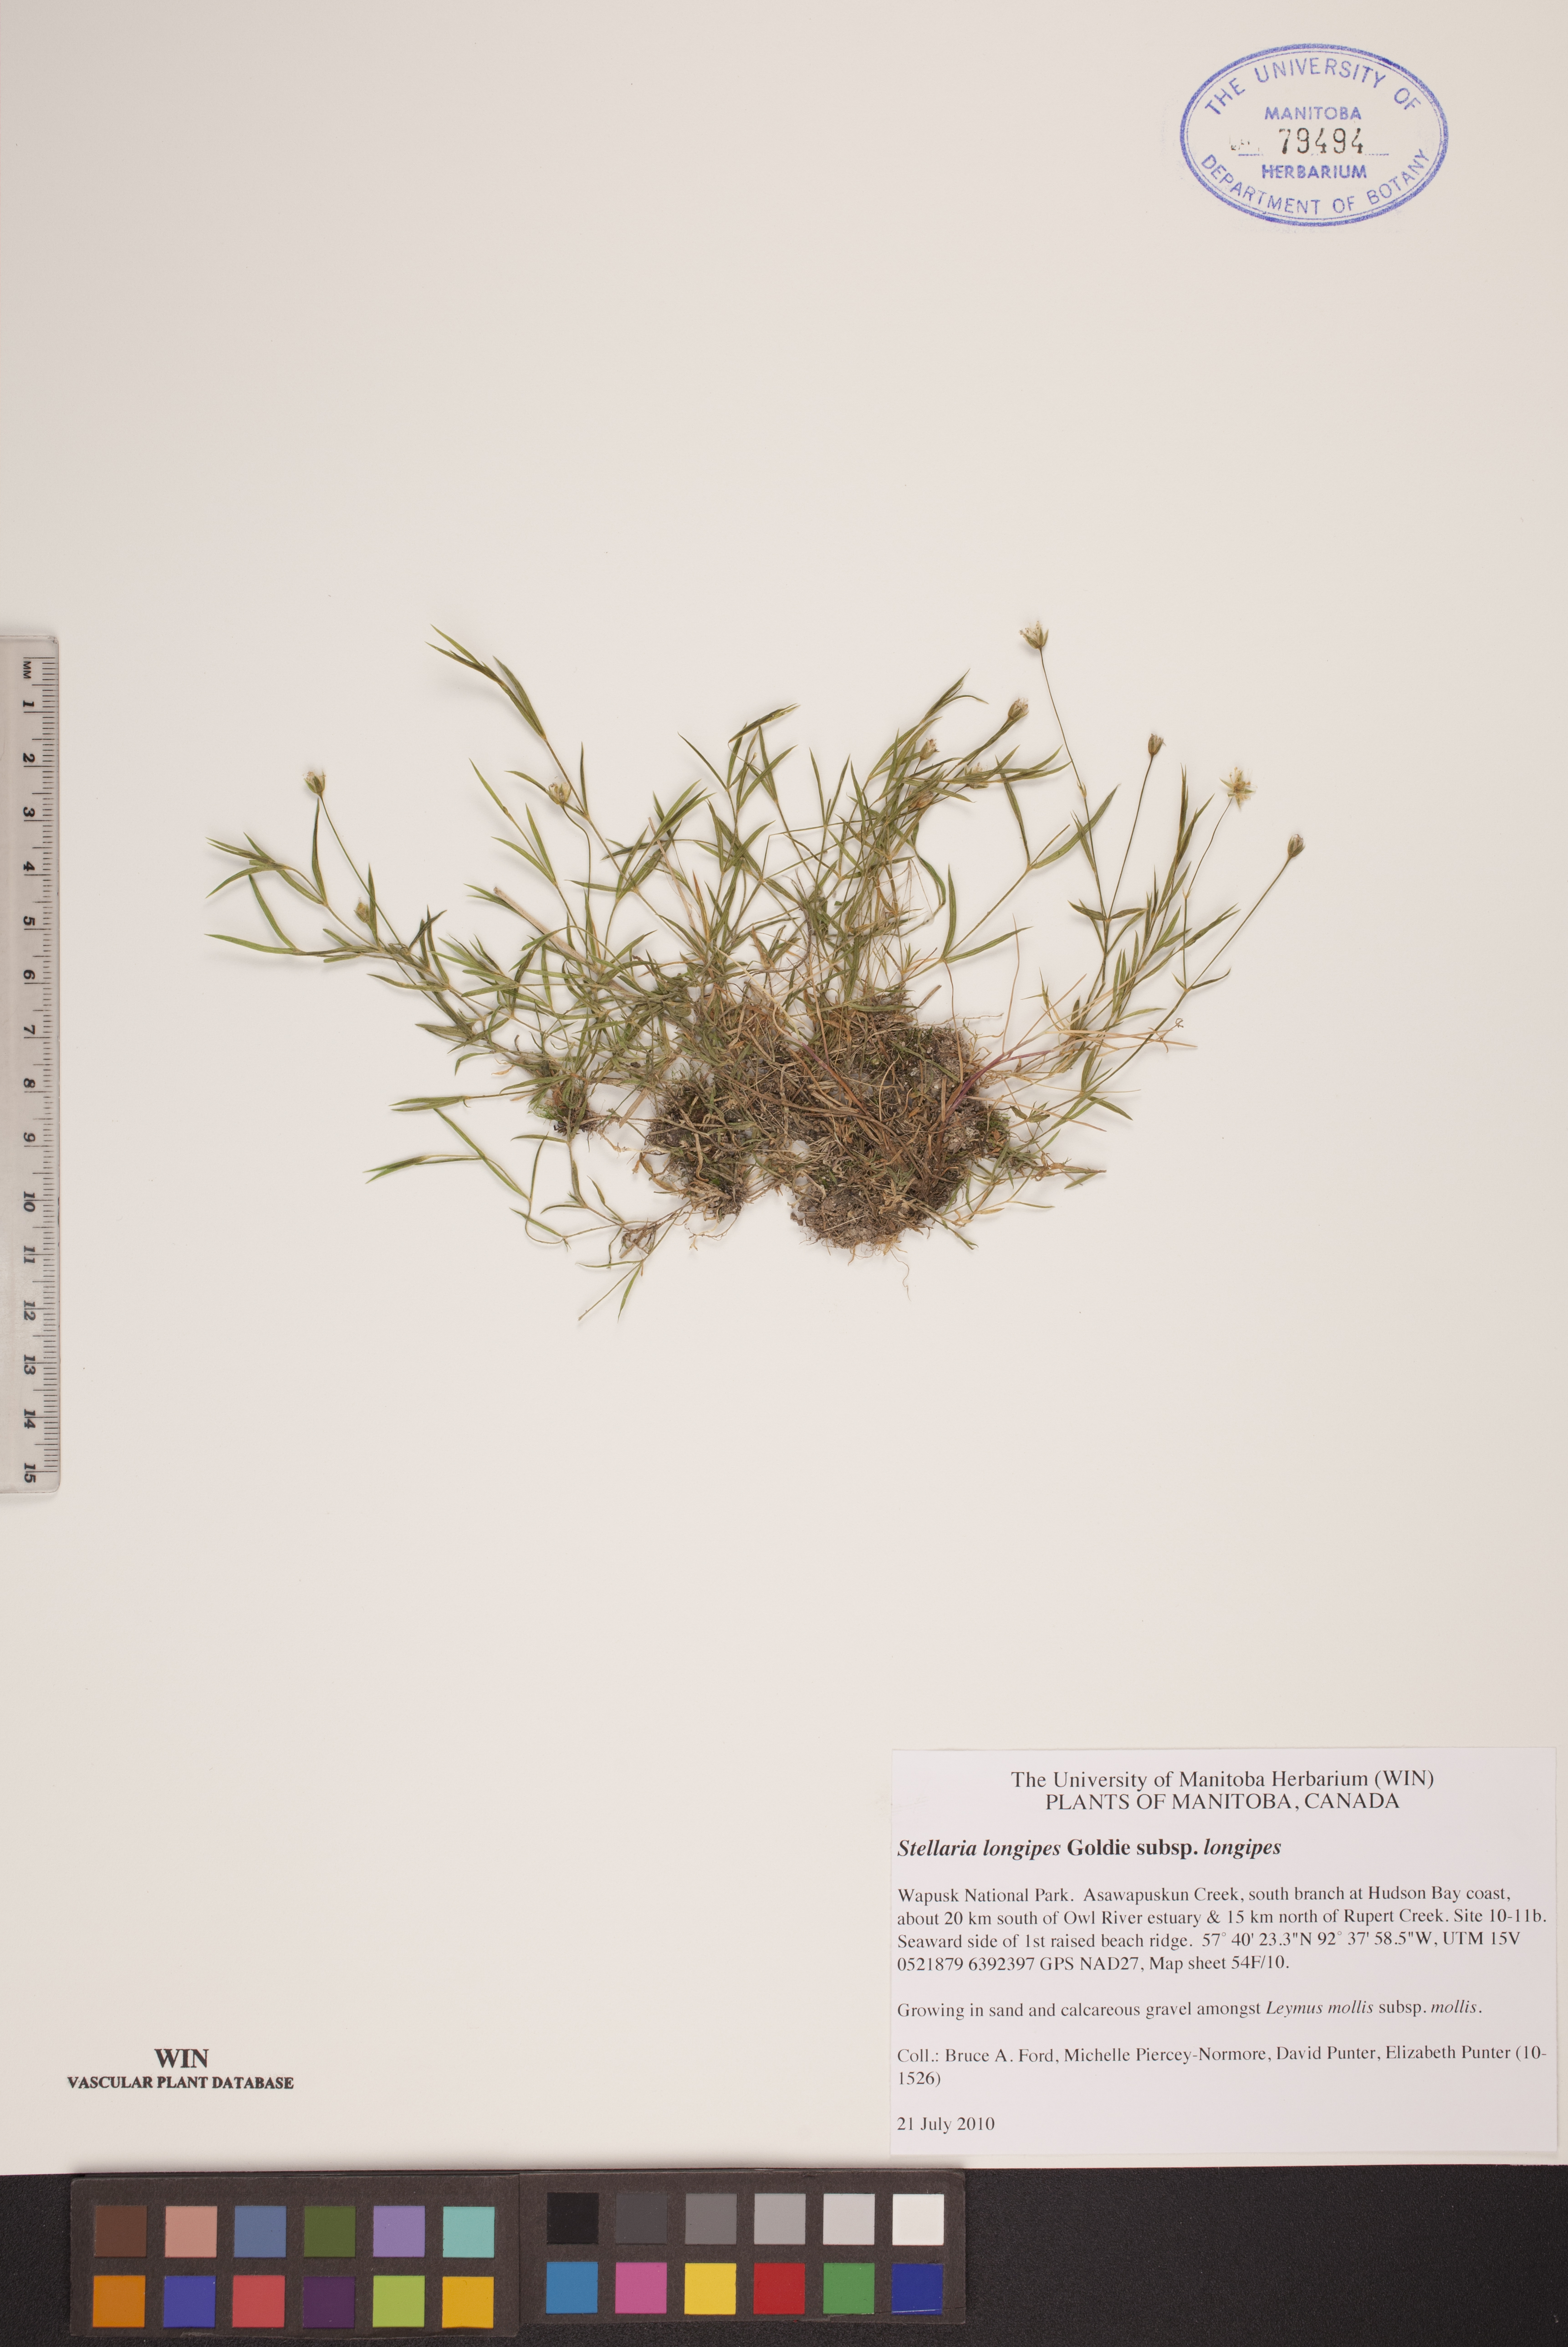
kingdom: Plantae
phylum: Tracheophyta
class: Magnoliopsida
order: Caryophyllales
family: Caryophyllaceae
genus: Stellaria
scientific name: Stellaria longipes
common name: Goldie's starwort
